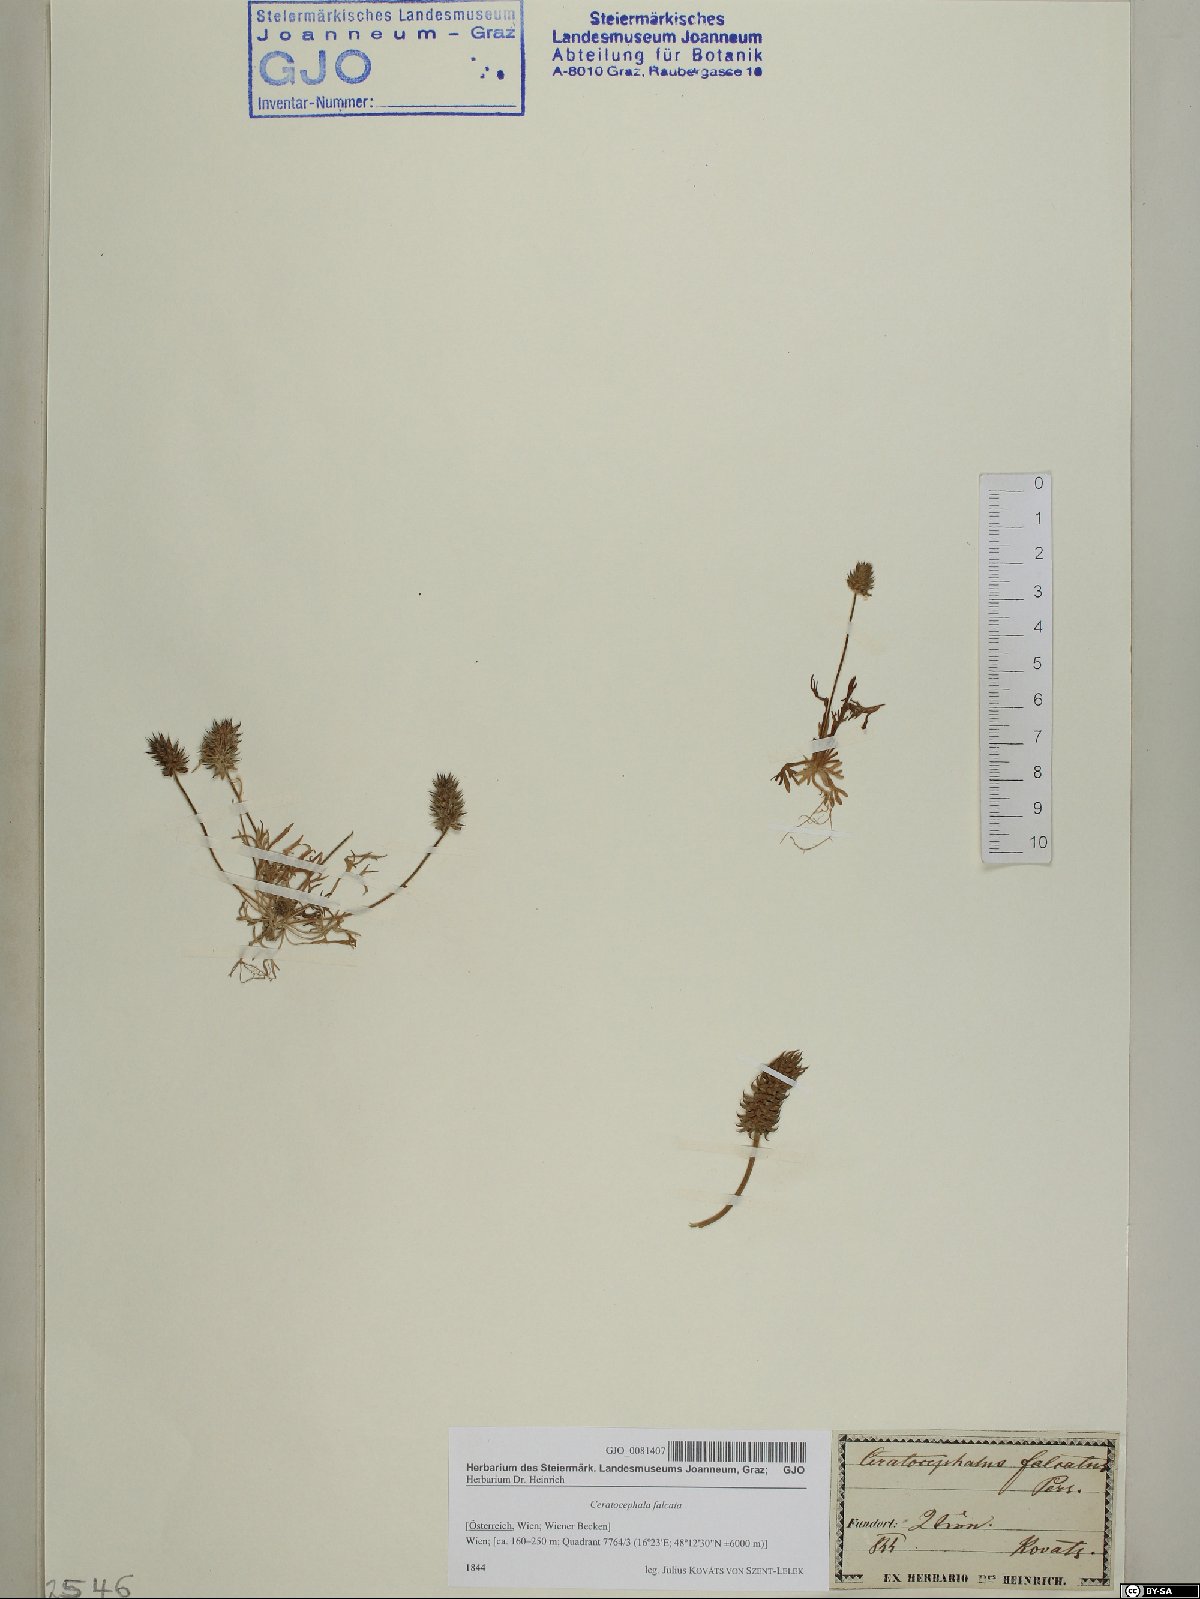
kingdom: Plantae
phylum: Tracheophyta
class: Magnoliopsida
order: Ranunculales
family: Ranunculaceae
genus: Ceratocephala
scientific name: Ceratocephala falcata
